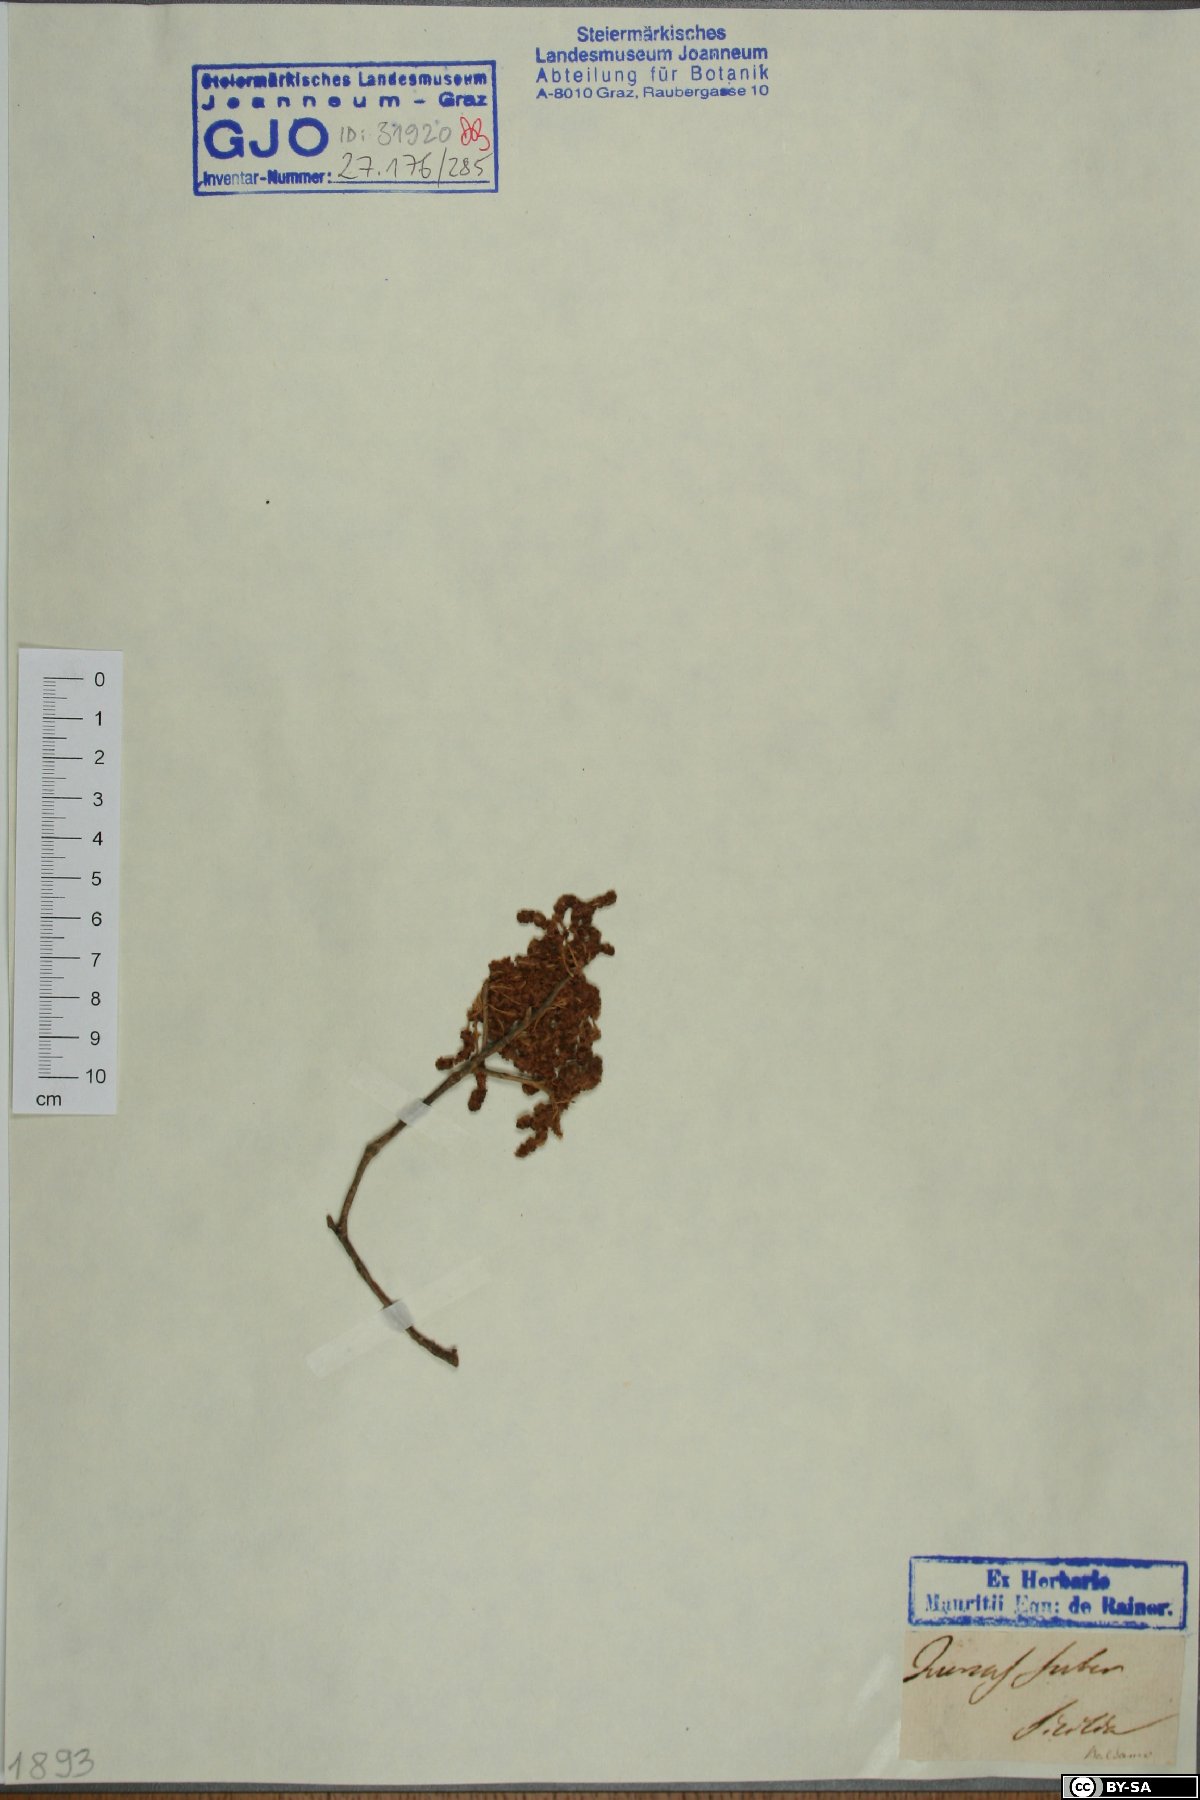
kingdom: Plantae
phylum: Tracheophyta
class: Magnoliopsida
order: Fagales
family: Fagaceae
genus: Quercus
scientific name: Quercus suber
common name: Cork oak
